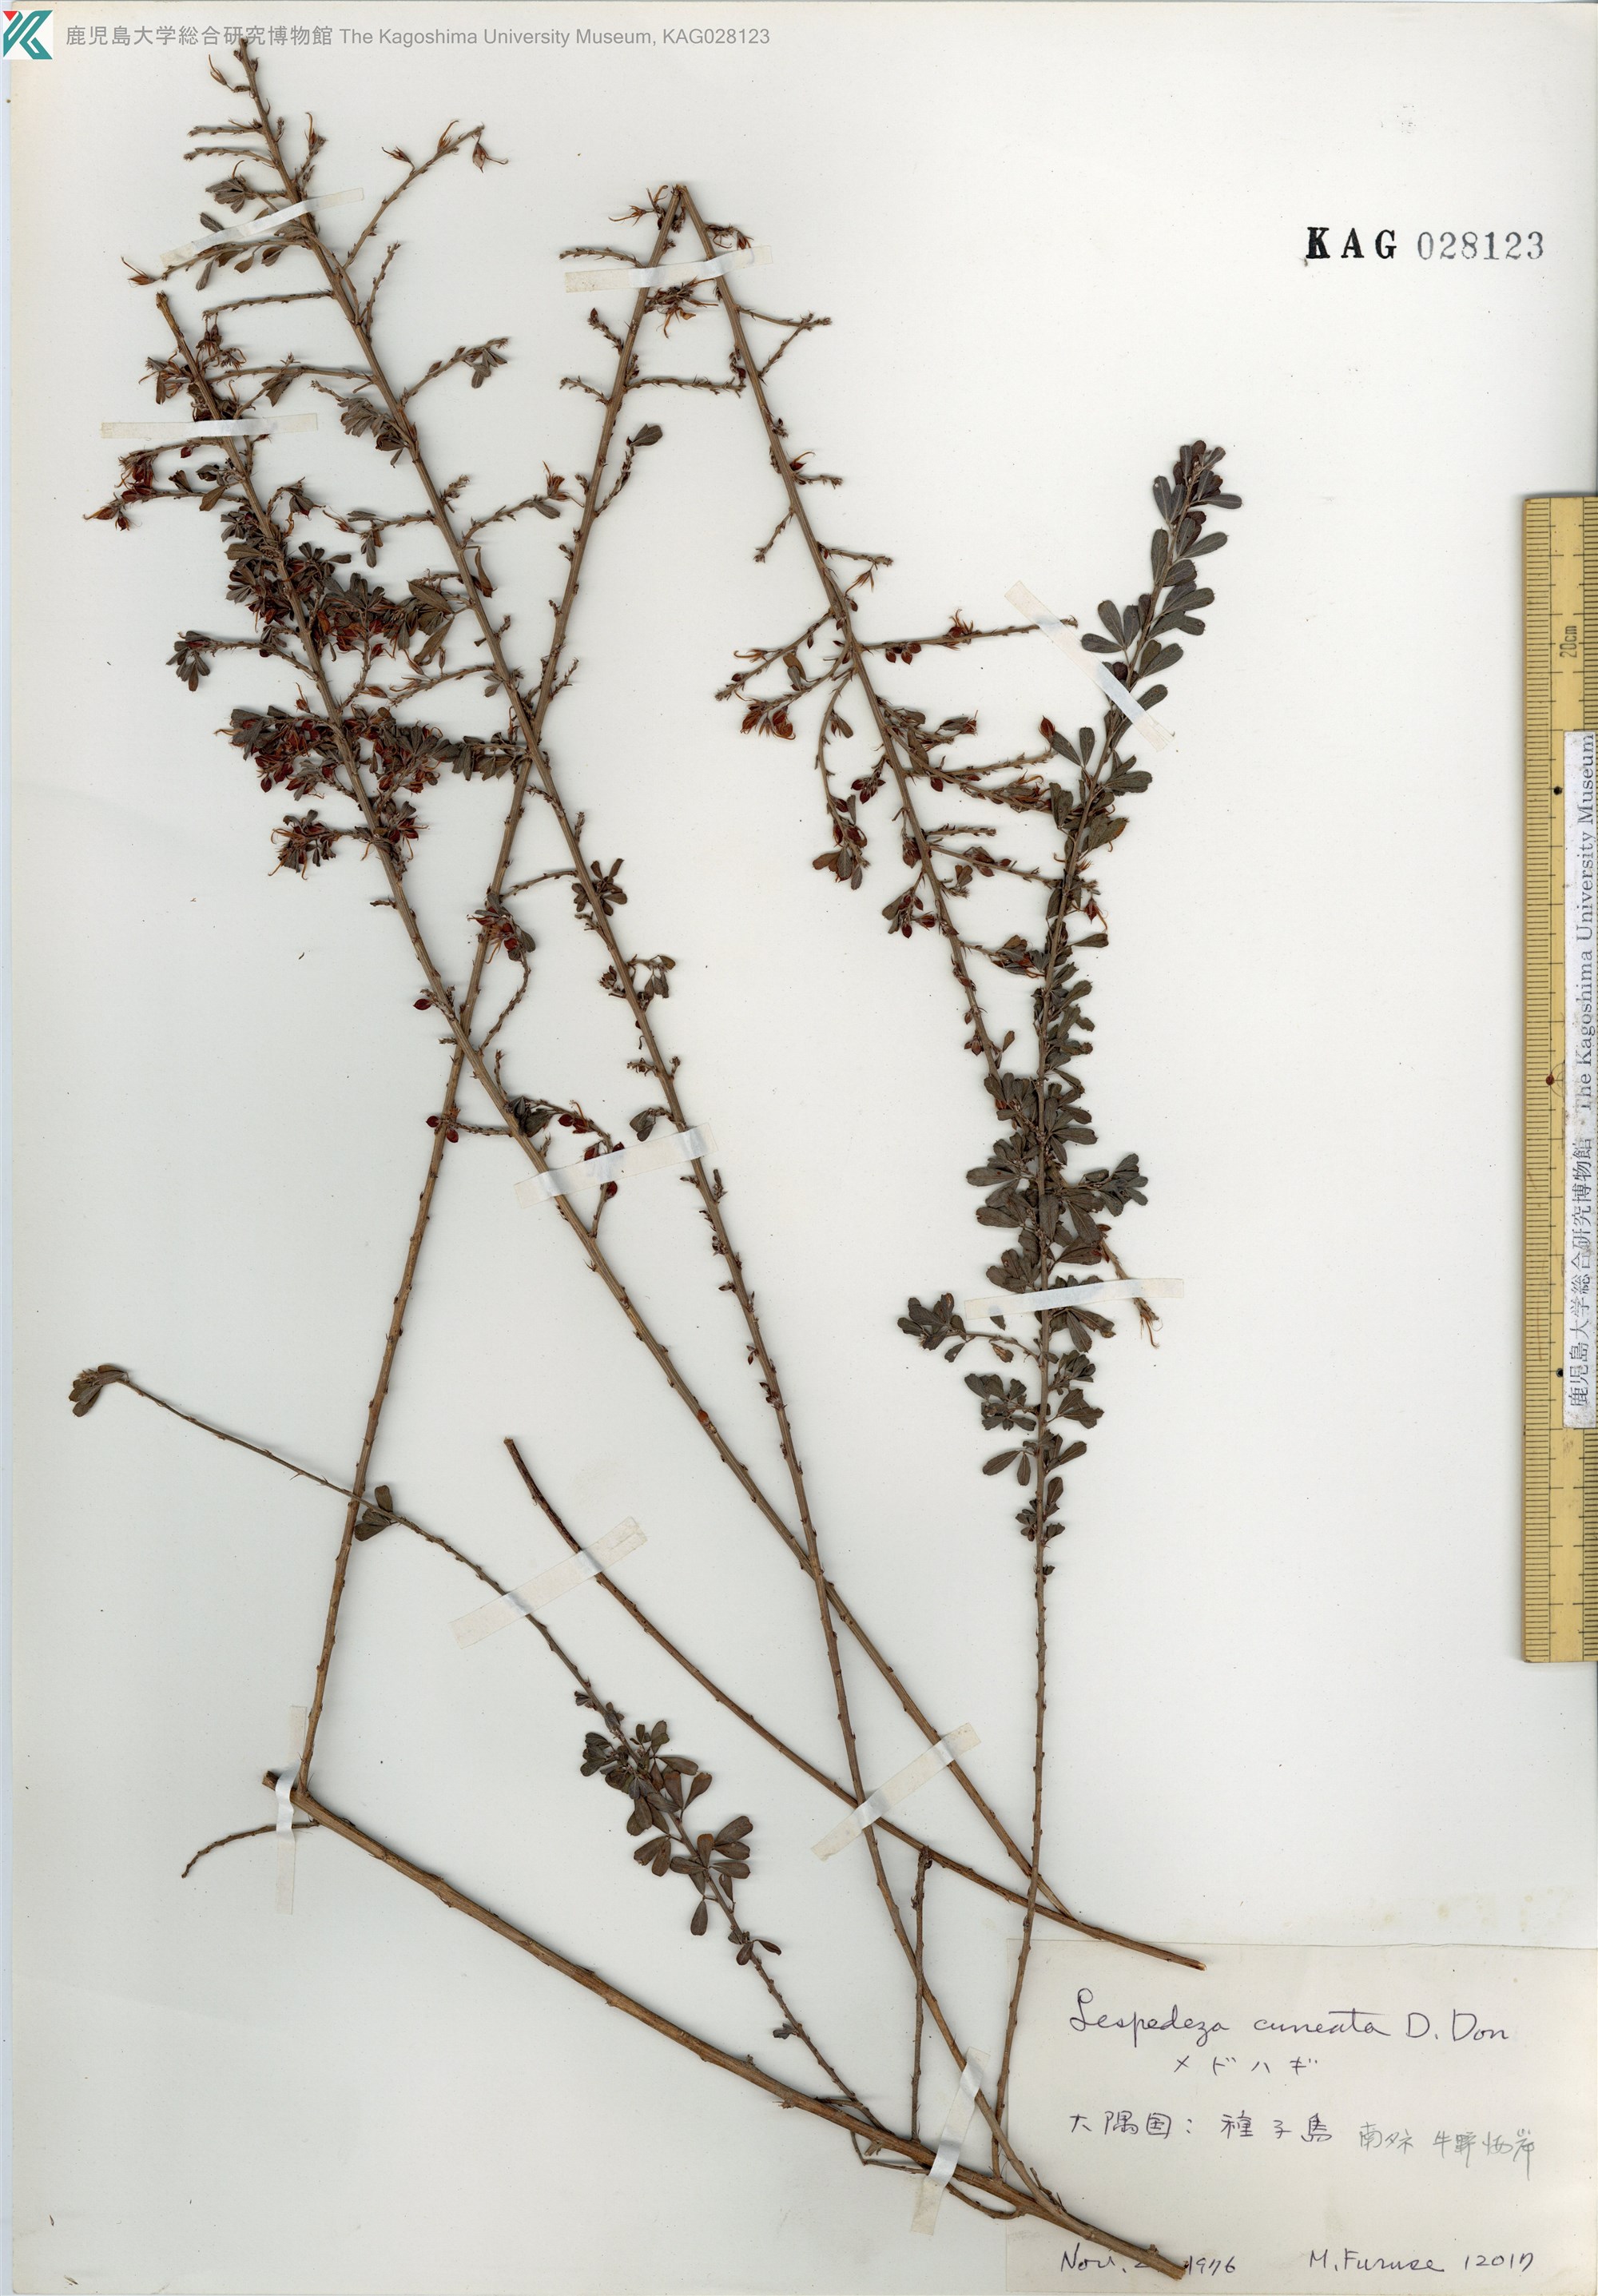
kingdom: Plantae
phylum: Tracheophyta
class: Magnoliopsida
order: Fabales
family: Fabaceae
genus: Lespedeza
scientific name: Lespedeza cuneata
